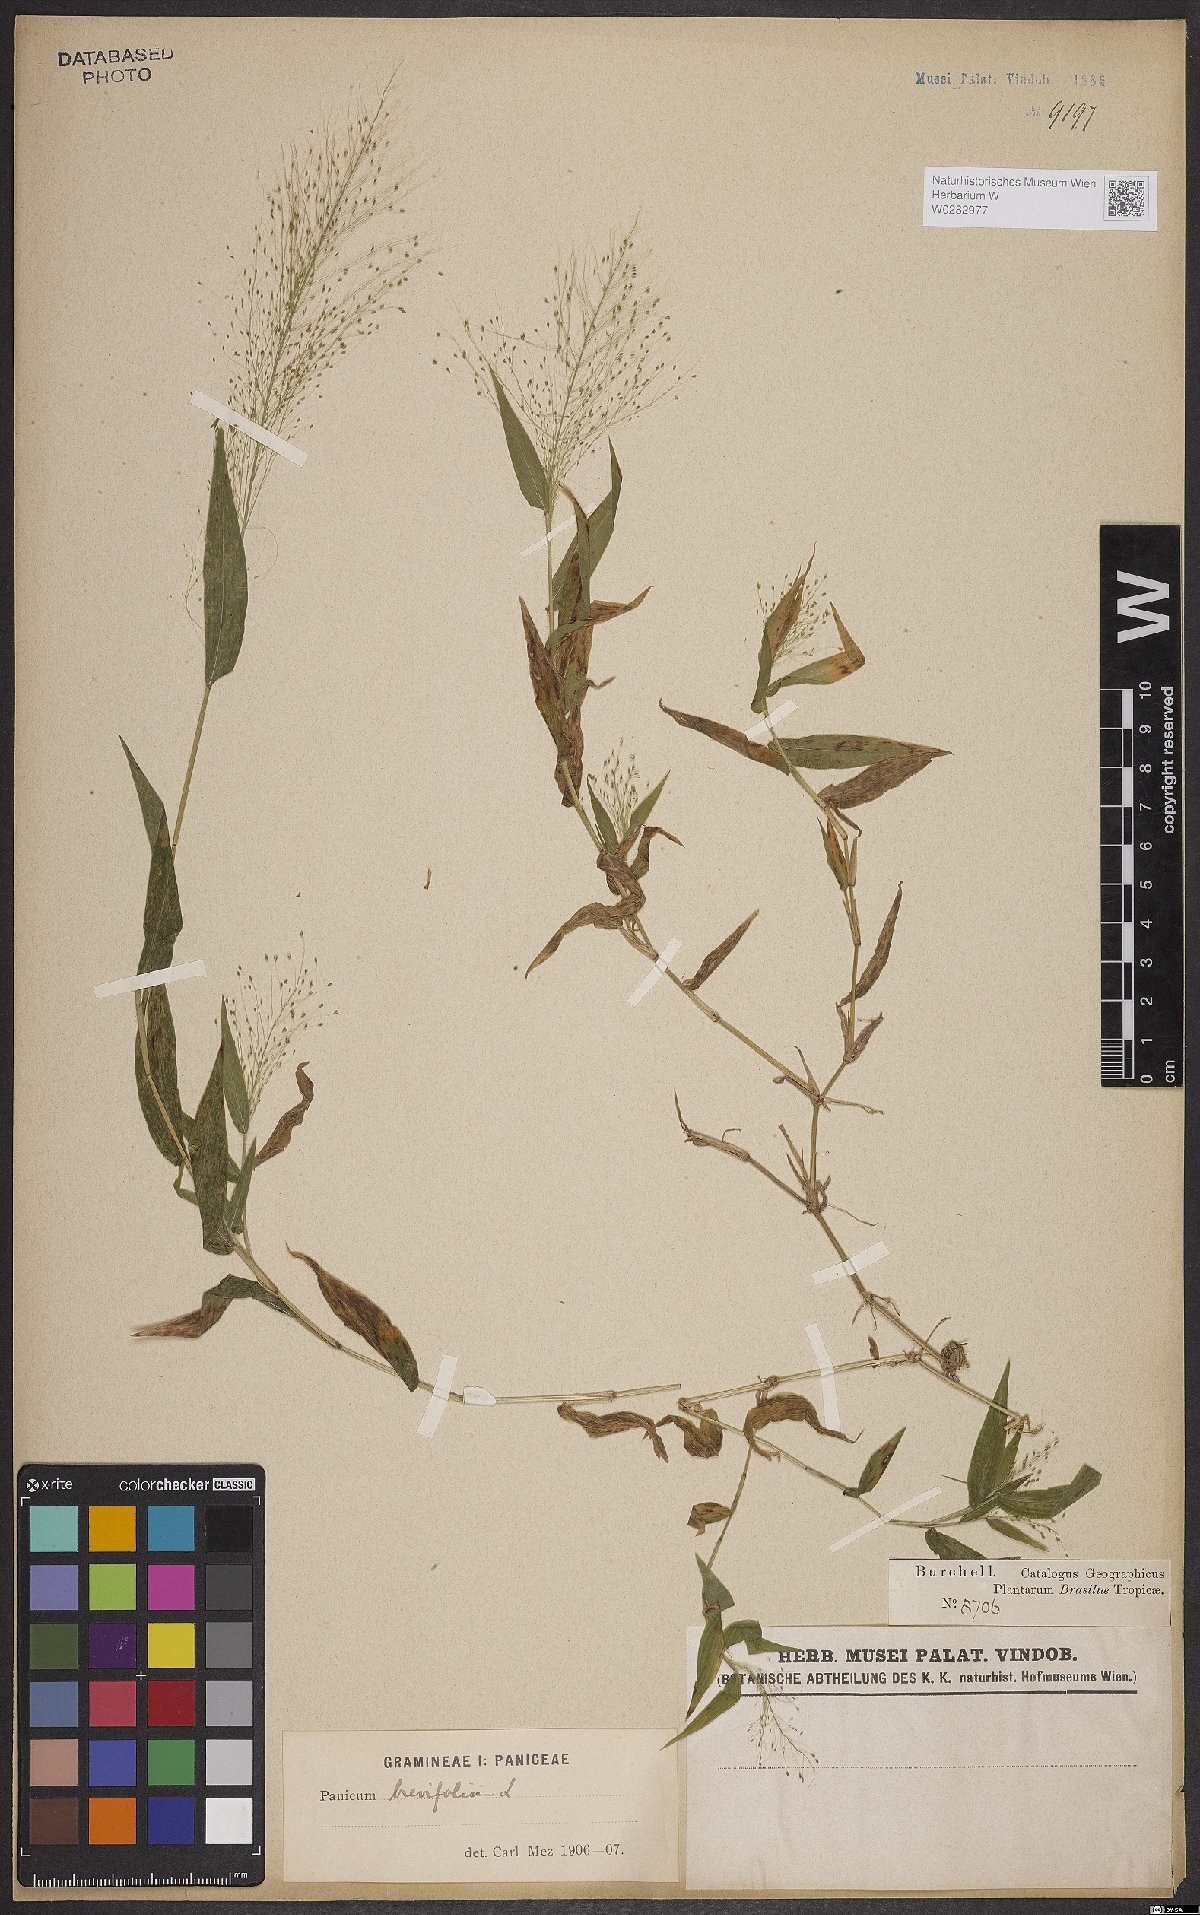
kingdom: Plantae
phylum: Tracheophyta
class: Liliopsida
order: Poales
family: Poaceae
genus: Panicum
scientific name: Panicum brevifolium
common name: Shortleaf panic grass
